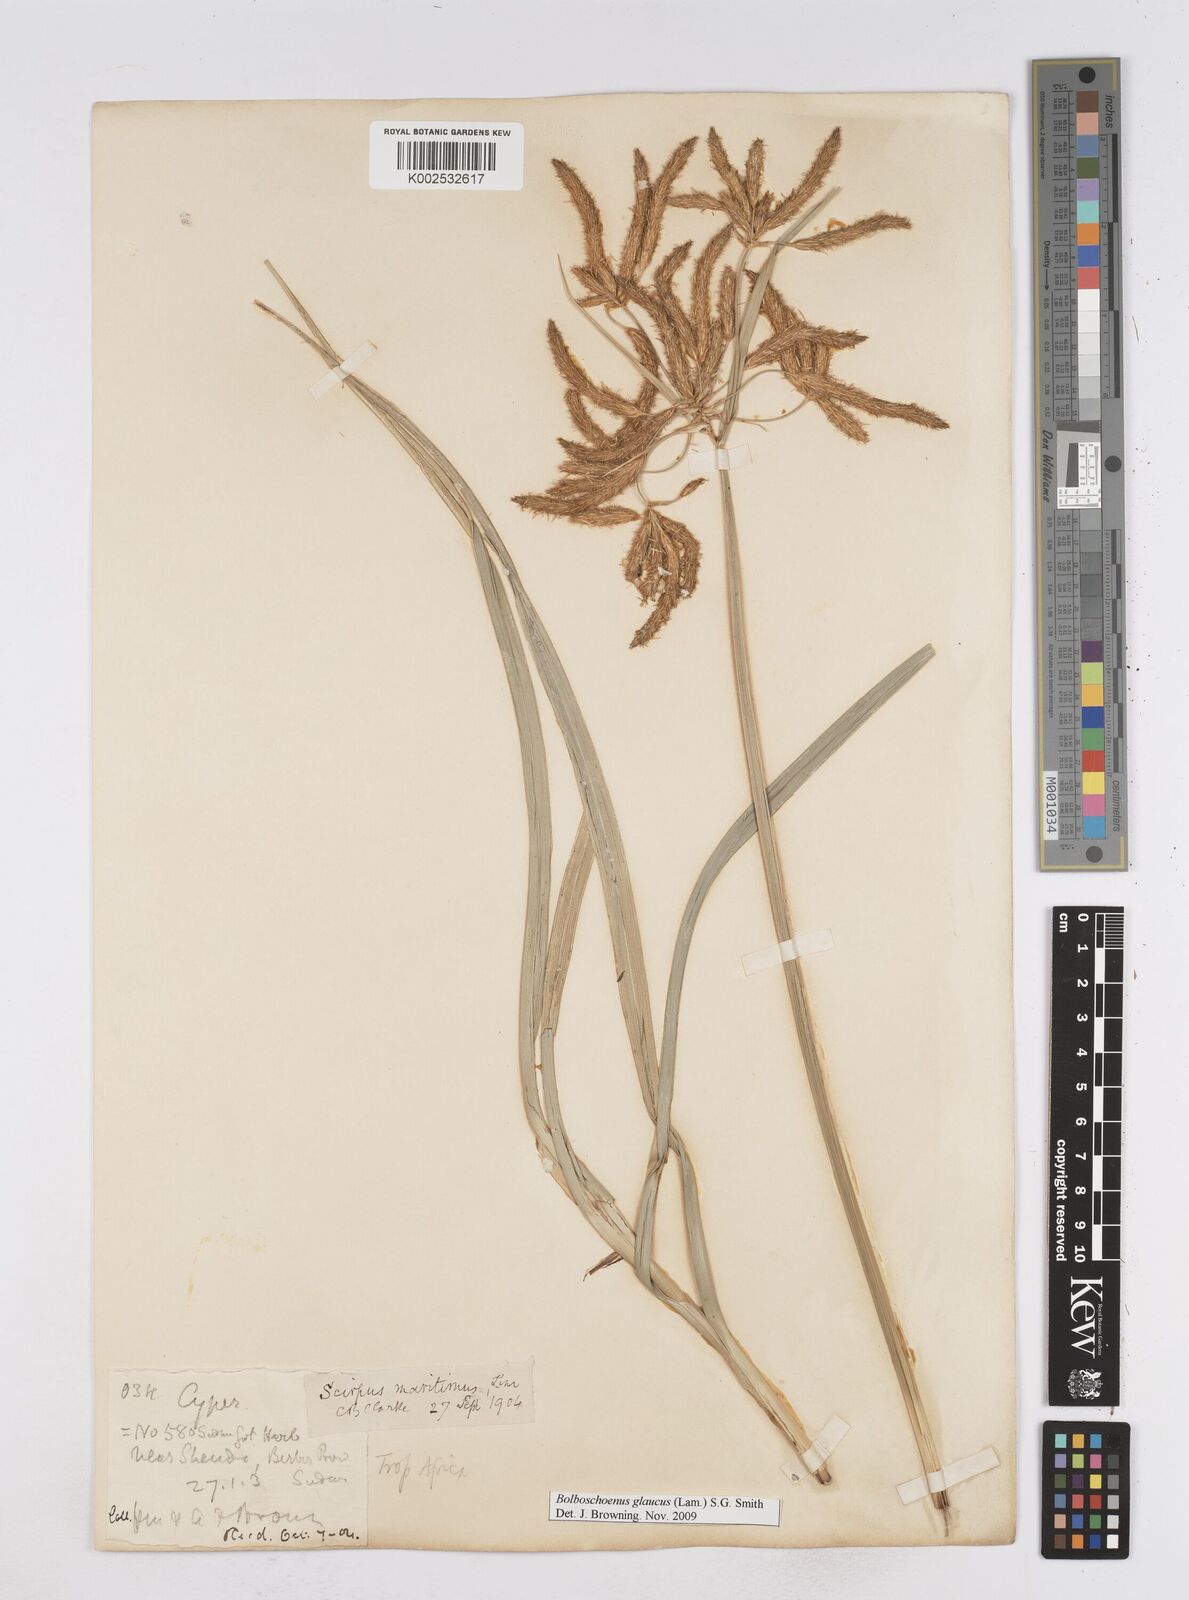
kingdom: Plantae
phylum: Tracheophyta
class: Liliopsida
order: Poales
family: Cyperaceae
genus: Bolboschoenus
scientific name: Bolboschoenus glaucus
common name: Tuberous bulrush
